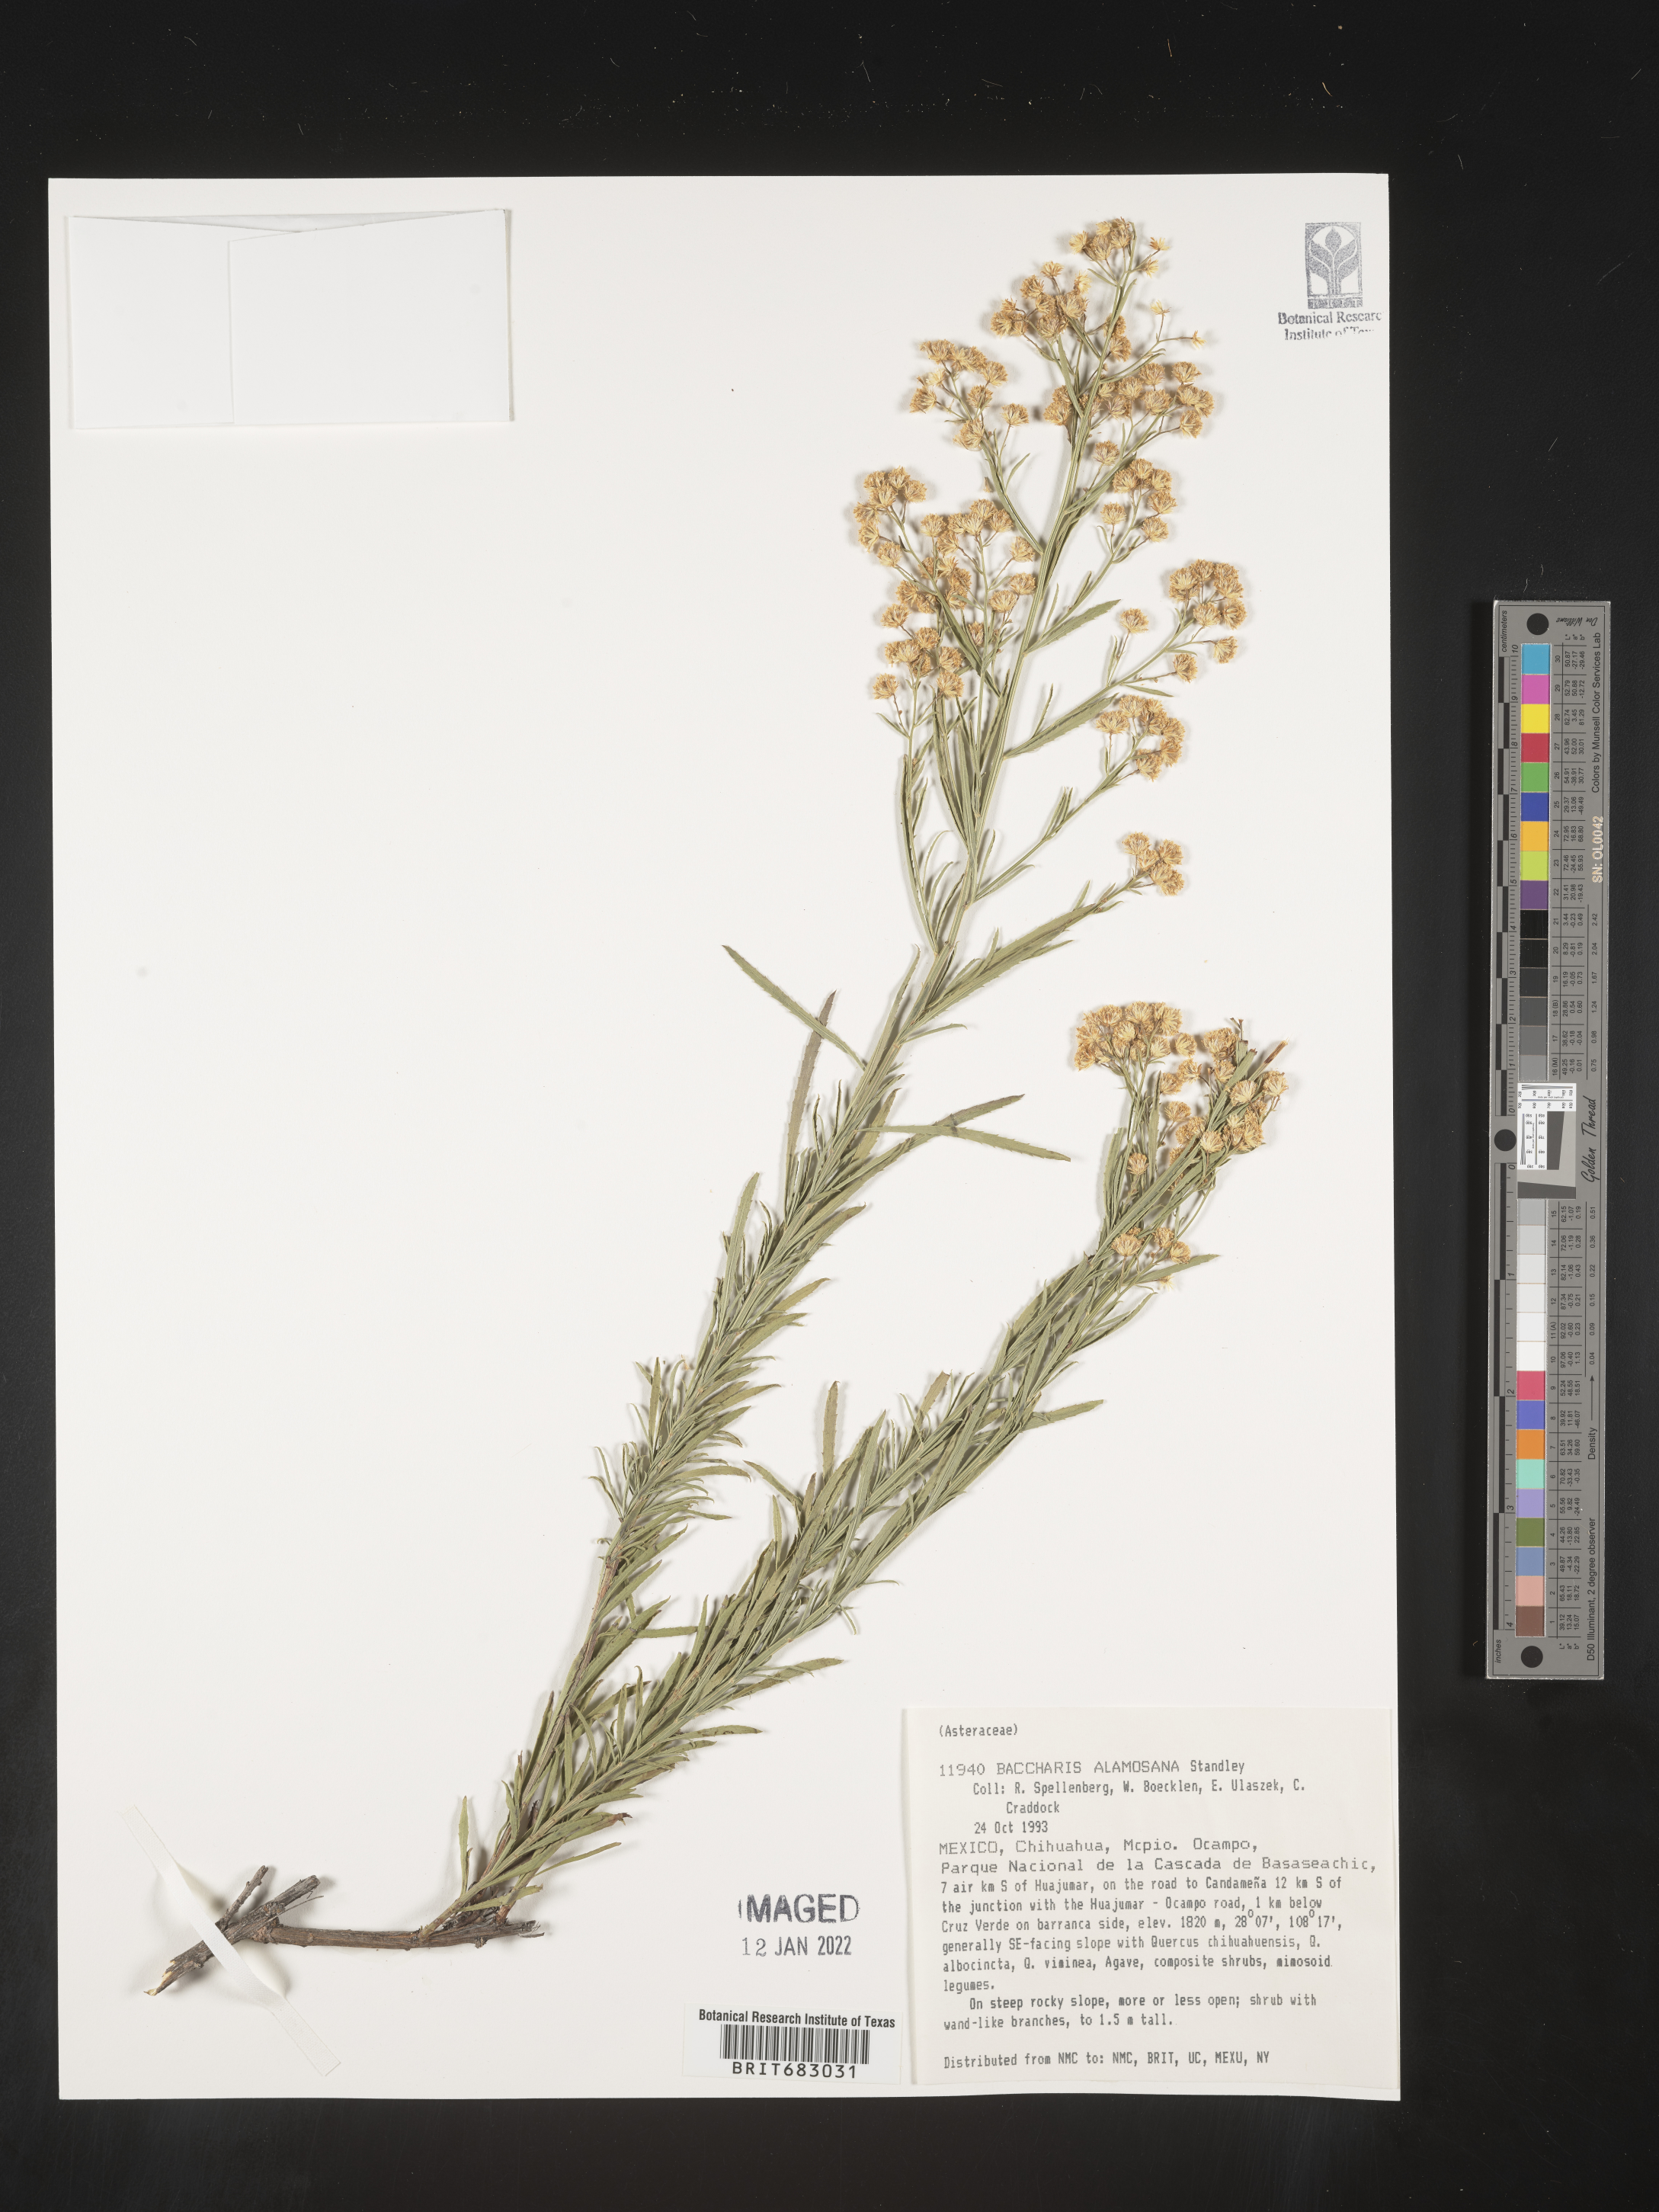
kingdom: Plantae
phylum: Tracheophyta
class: Magnoliopsida
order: Asterales
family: Asteraceae
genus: Baccharis
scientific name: Baccharis thesioides
